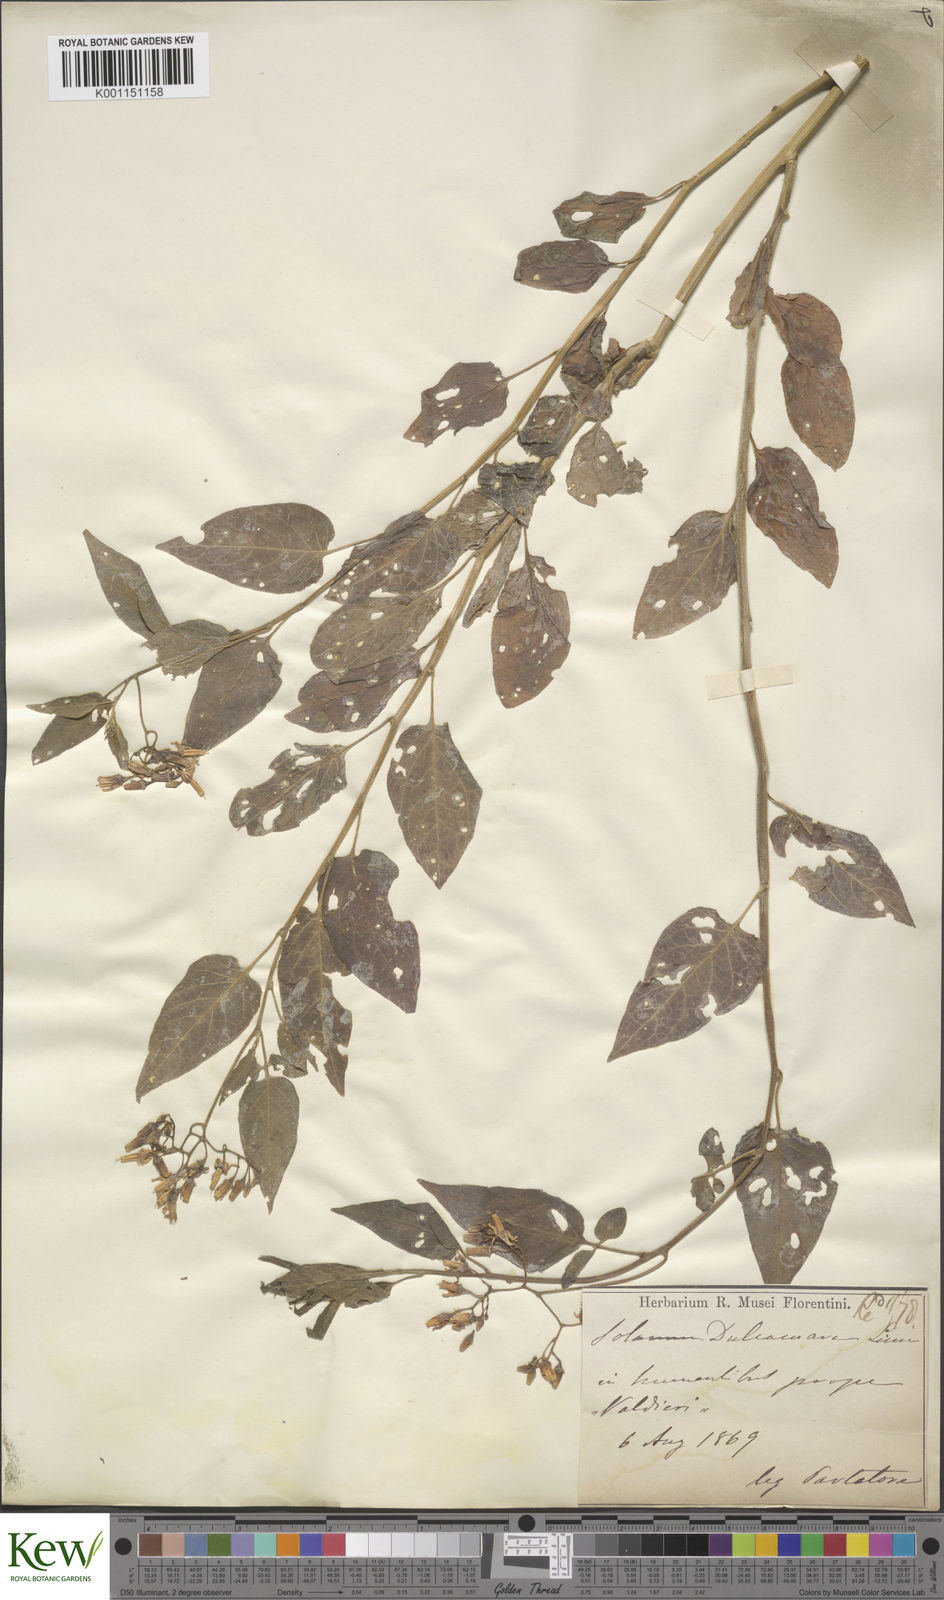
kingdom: Plantae
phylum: Tracheophyta
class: Magnoliopsida
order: Solanales
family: Solanaceae
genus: Solanum
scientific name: Solanum dulcamara
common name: Climbing nightshade
